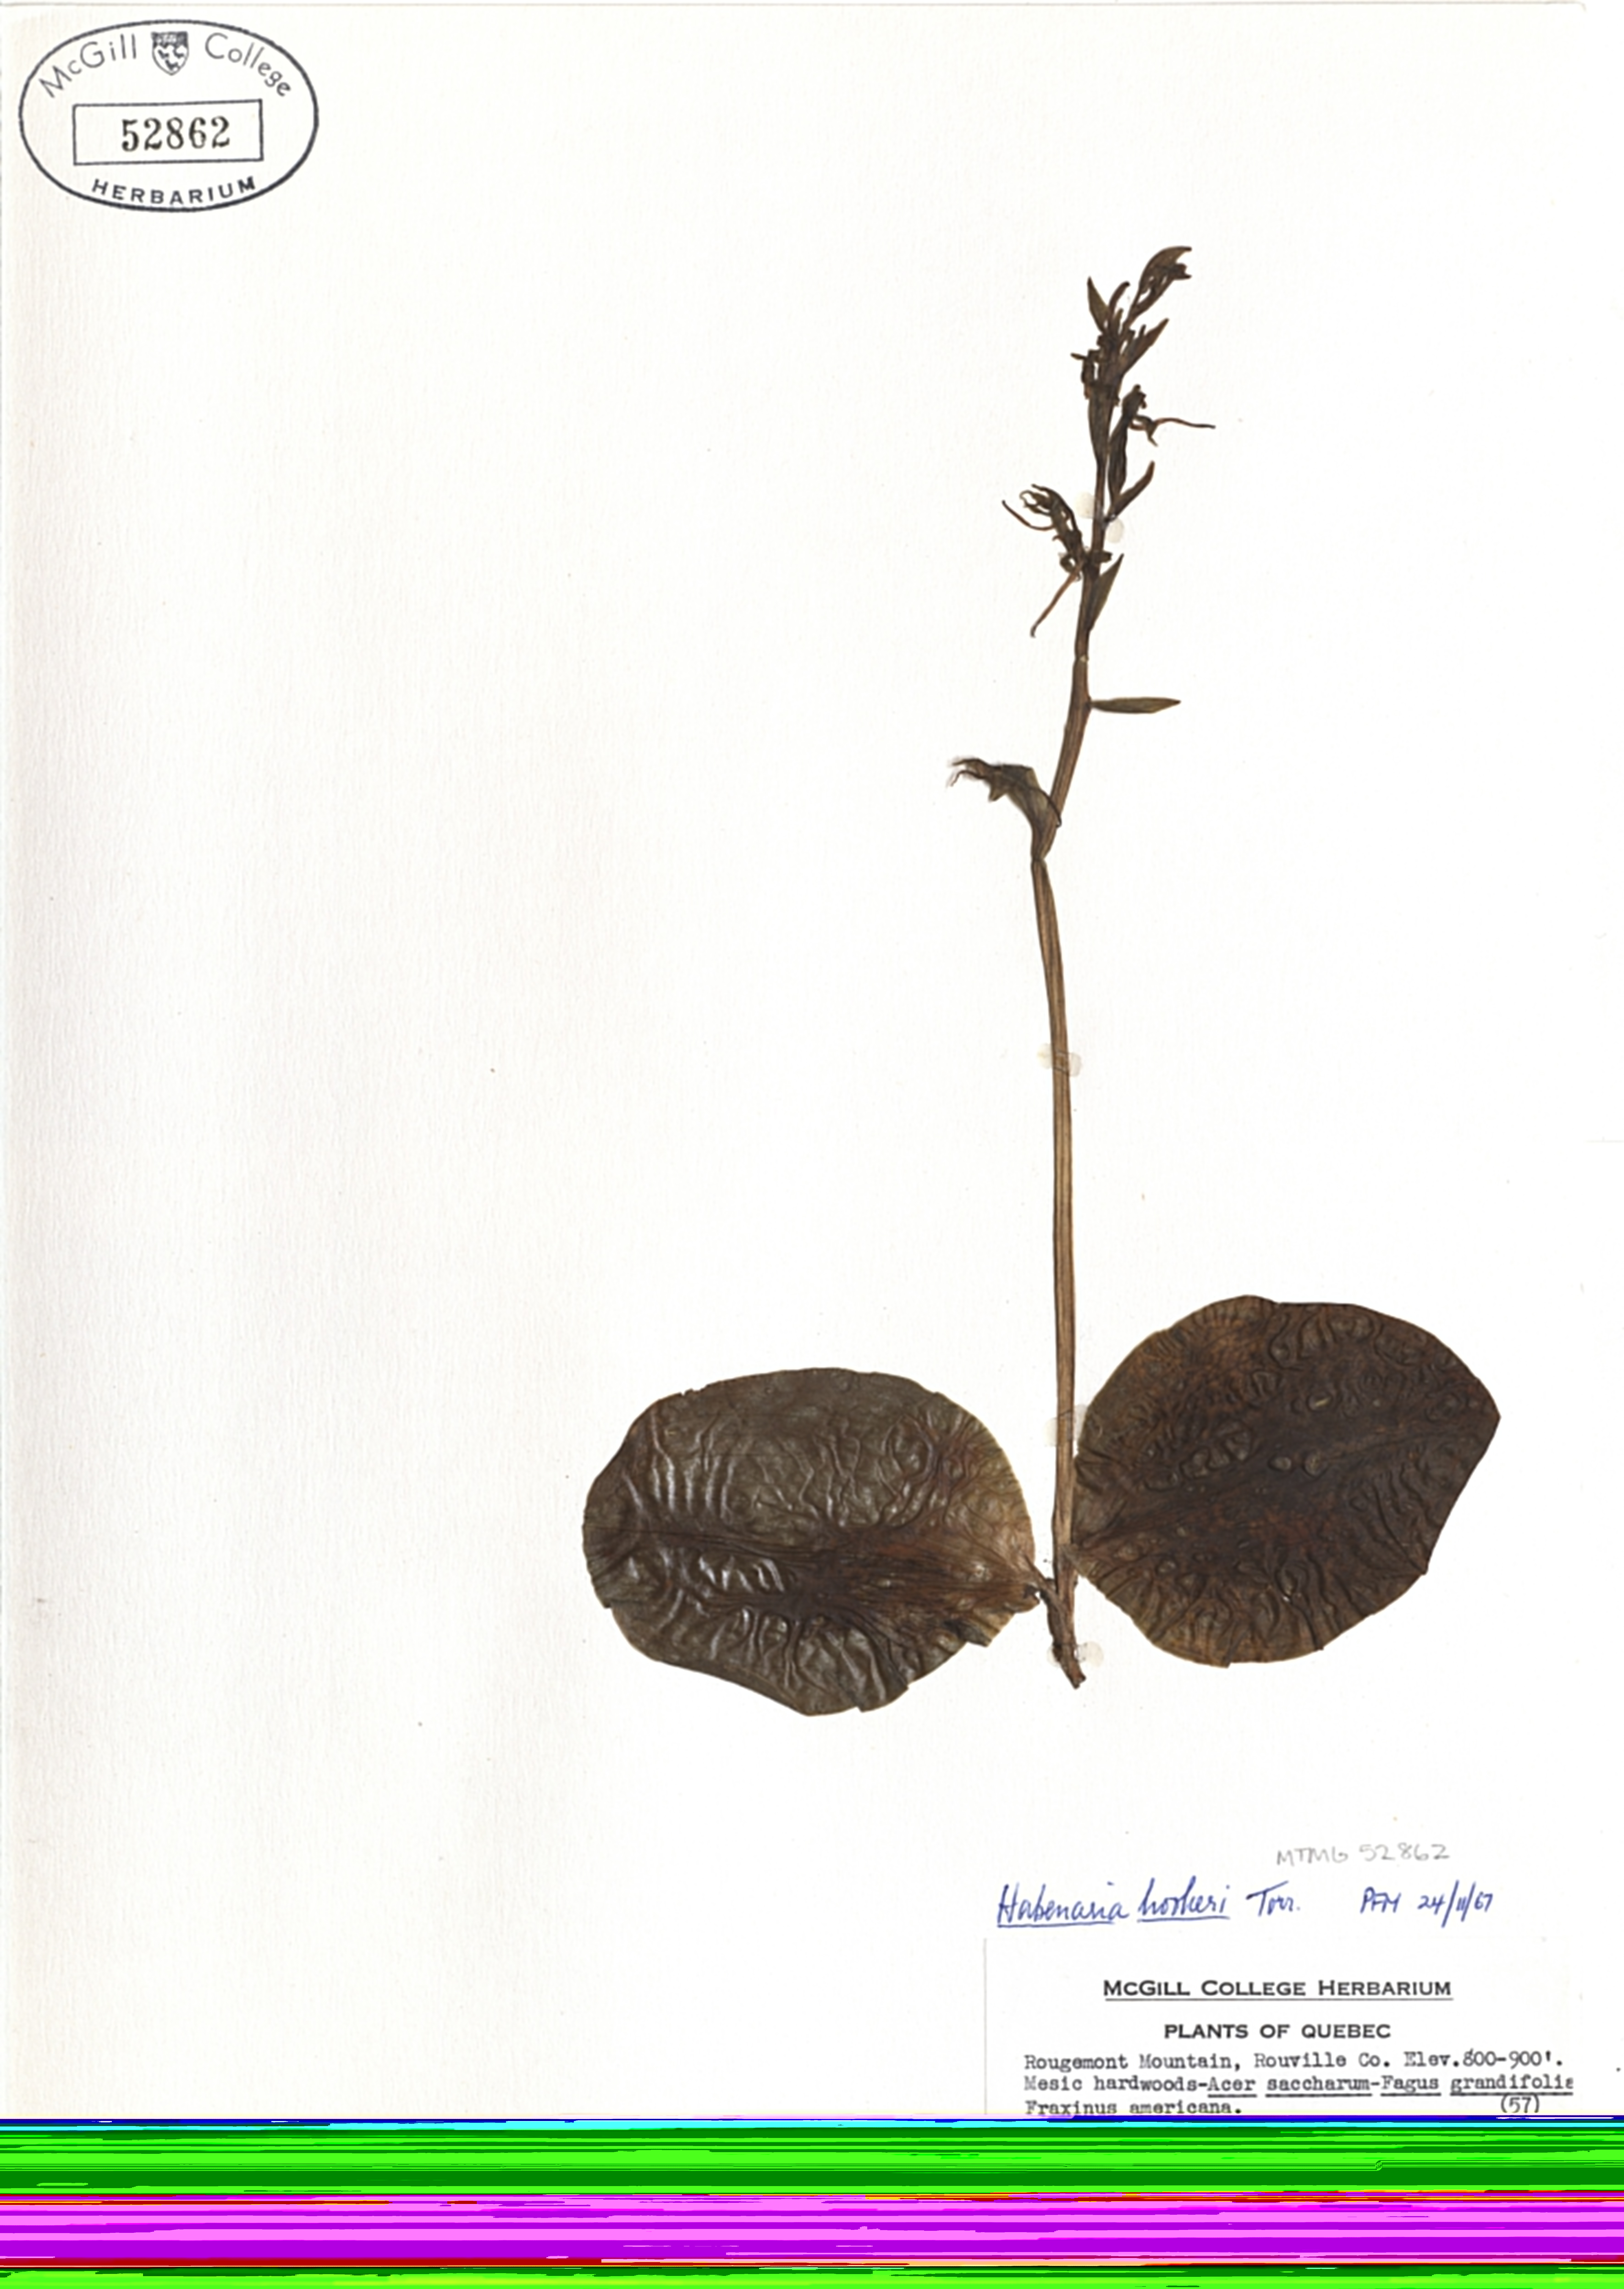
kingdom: Plantae
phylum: Tracheophyta
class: Liliopsida
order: Asparagales
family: Orchidaceae
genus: Platanthera
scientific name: Platanthera hookeri
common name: Hooker's orchid
